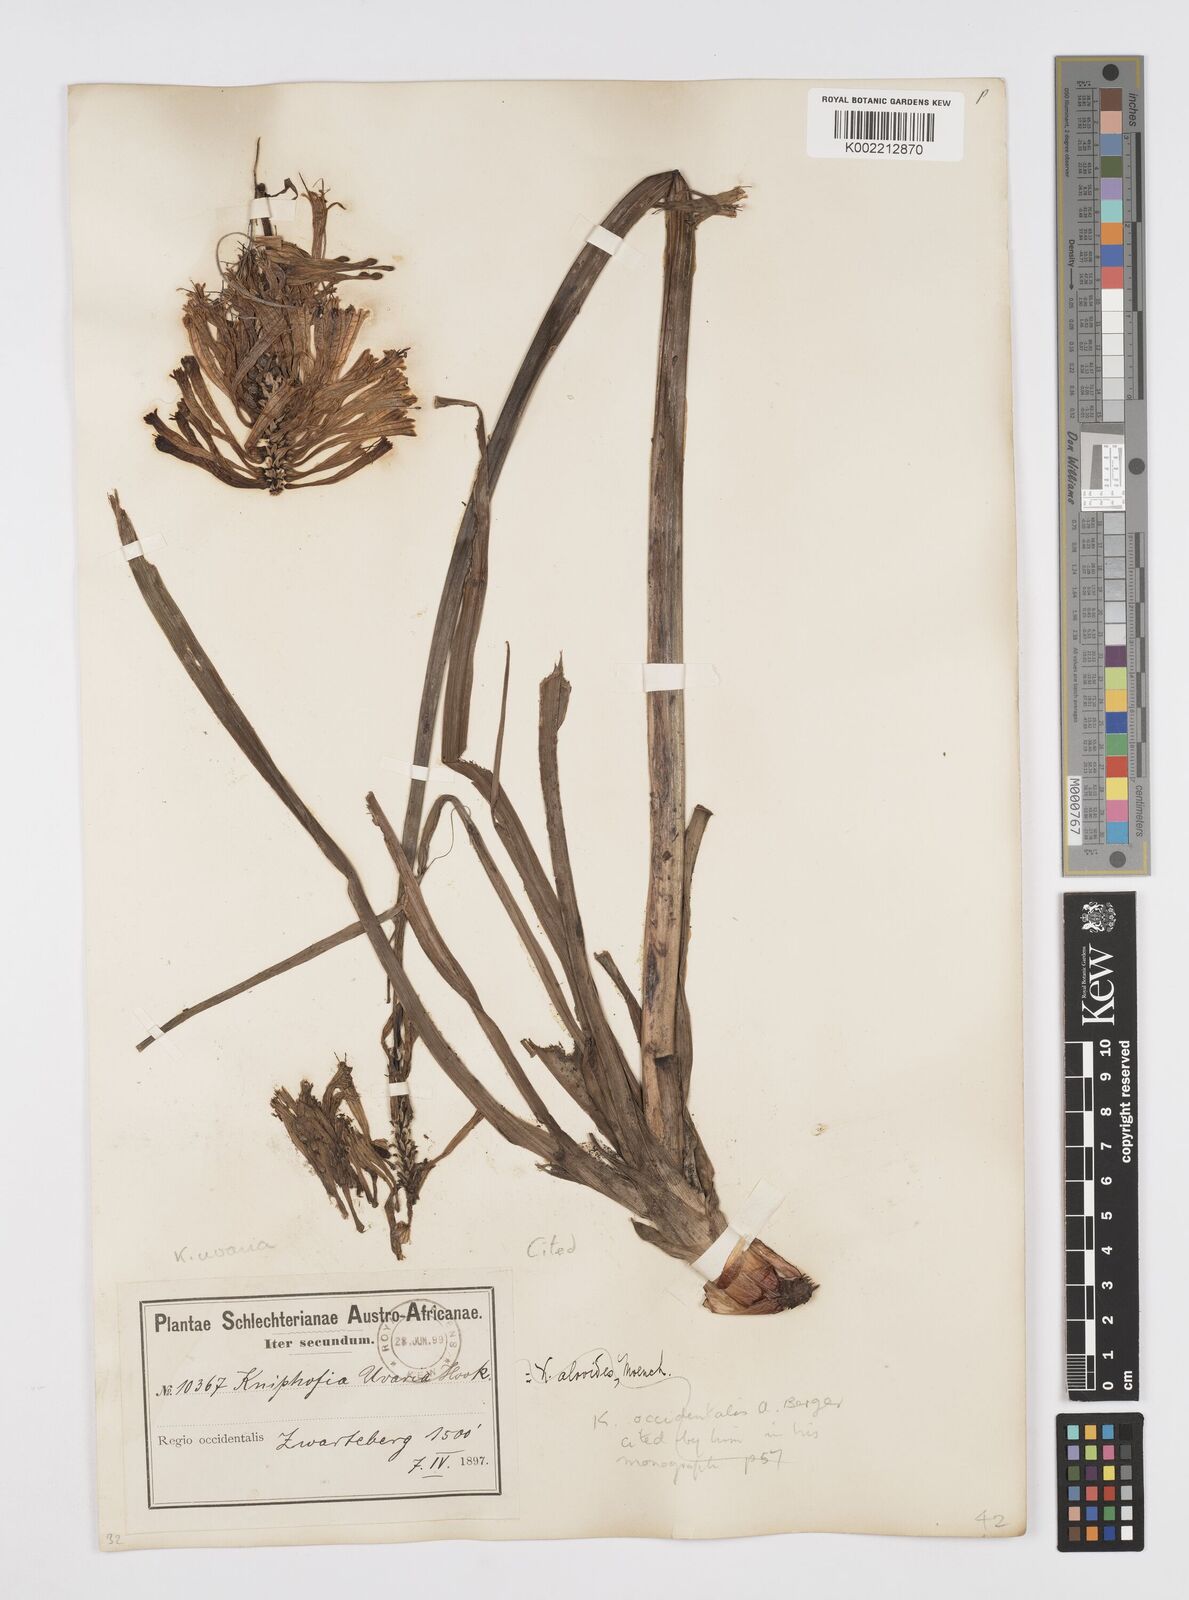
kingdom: Plantae
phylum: Tracheophyta
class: Liliopsida
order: Asparagales
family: Asphodelaceae
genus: Kniphofia
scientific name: Kniphofia uvaria
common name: Red-hot-poker
